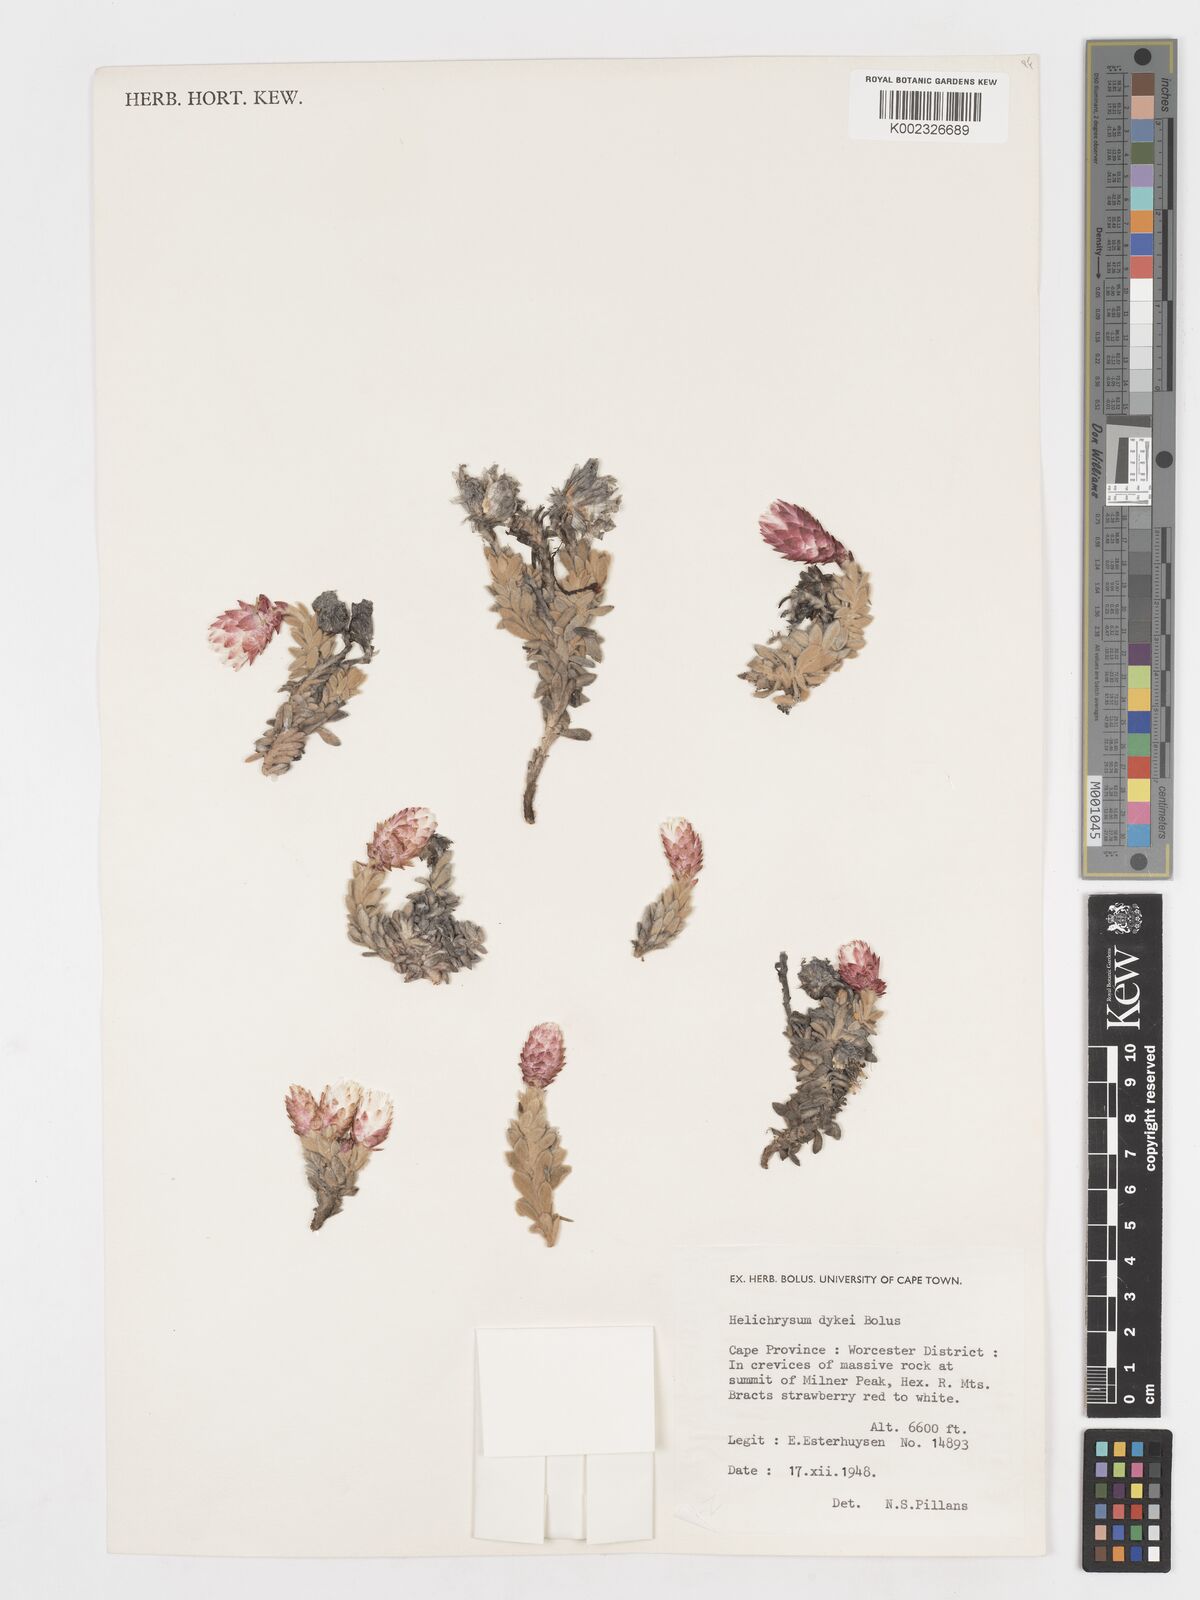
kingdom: Plantae
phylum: Tracheophyta
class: Magnoliopsida
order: Asterales
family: Asteraceae
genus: Syncarpha
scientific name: Syncarpha dykei
